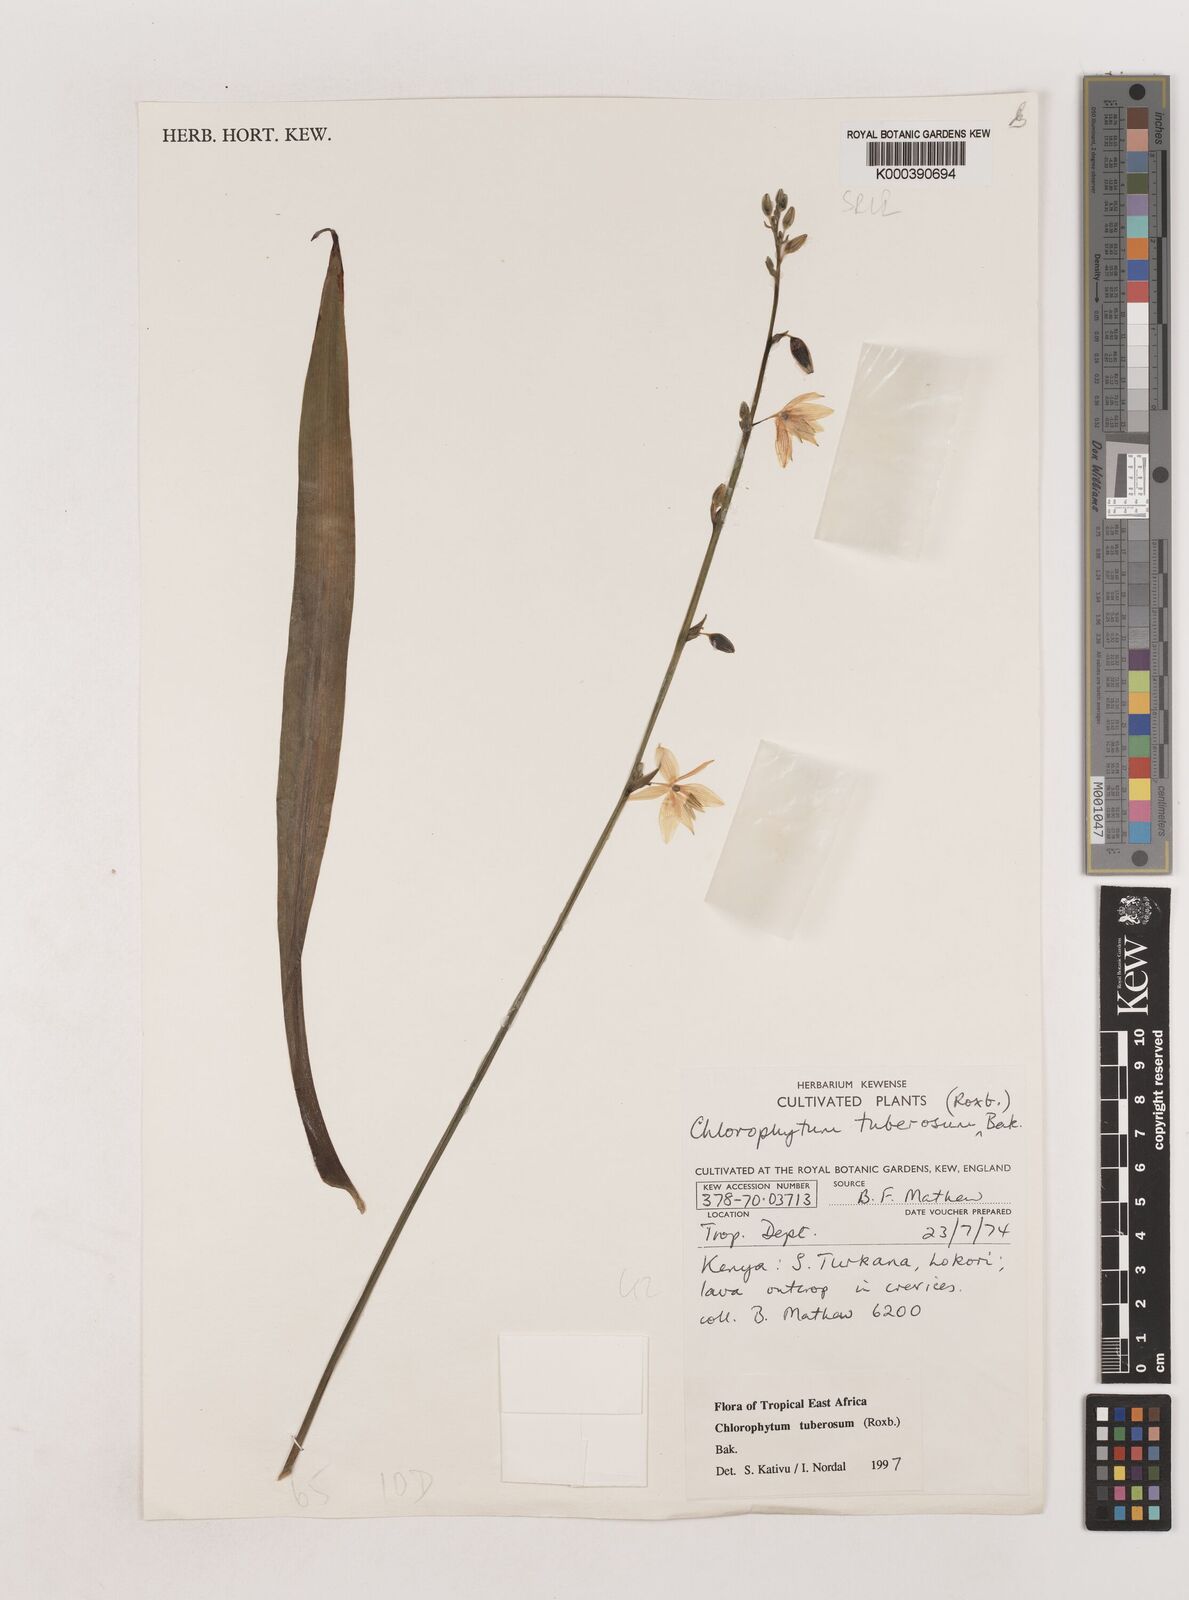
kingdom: Plantae
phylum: Tracheophyta
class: Liliopsida
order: Asparagales
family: Asparagaceae
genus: Chlorophytum
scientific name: Chlorophytum tuberosum
